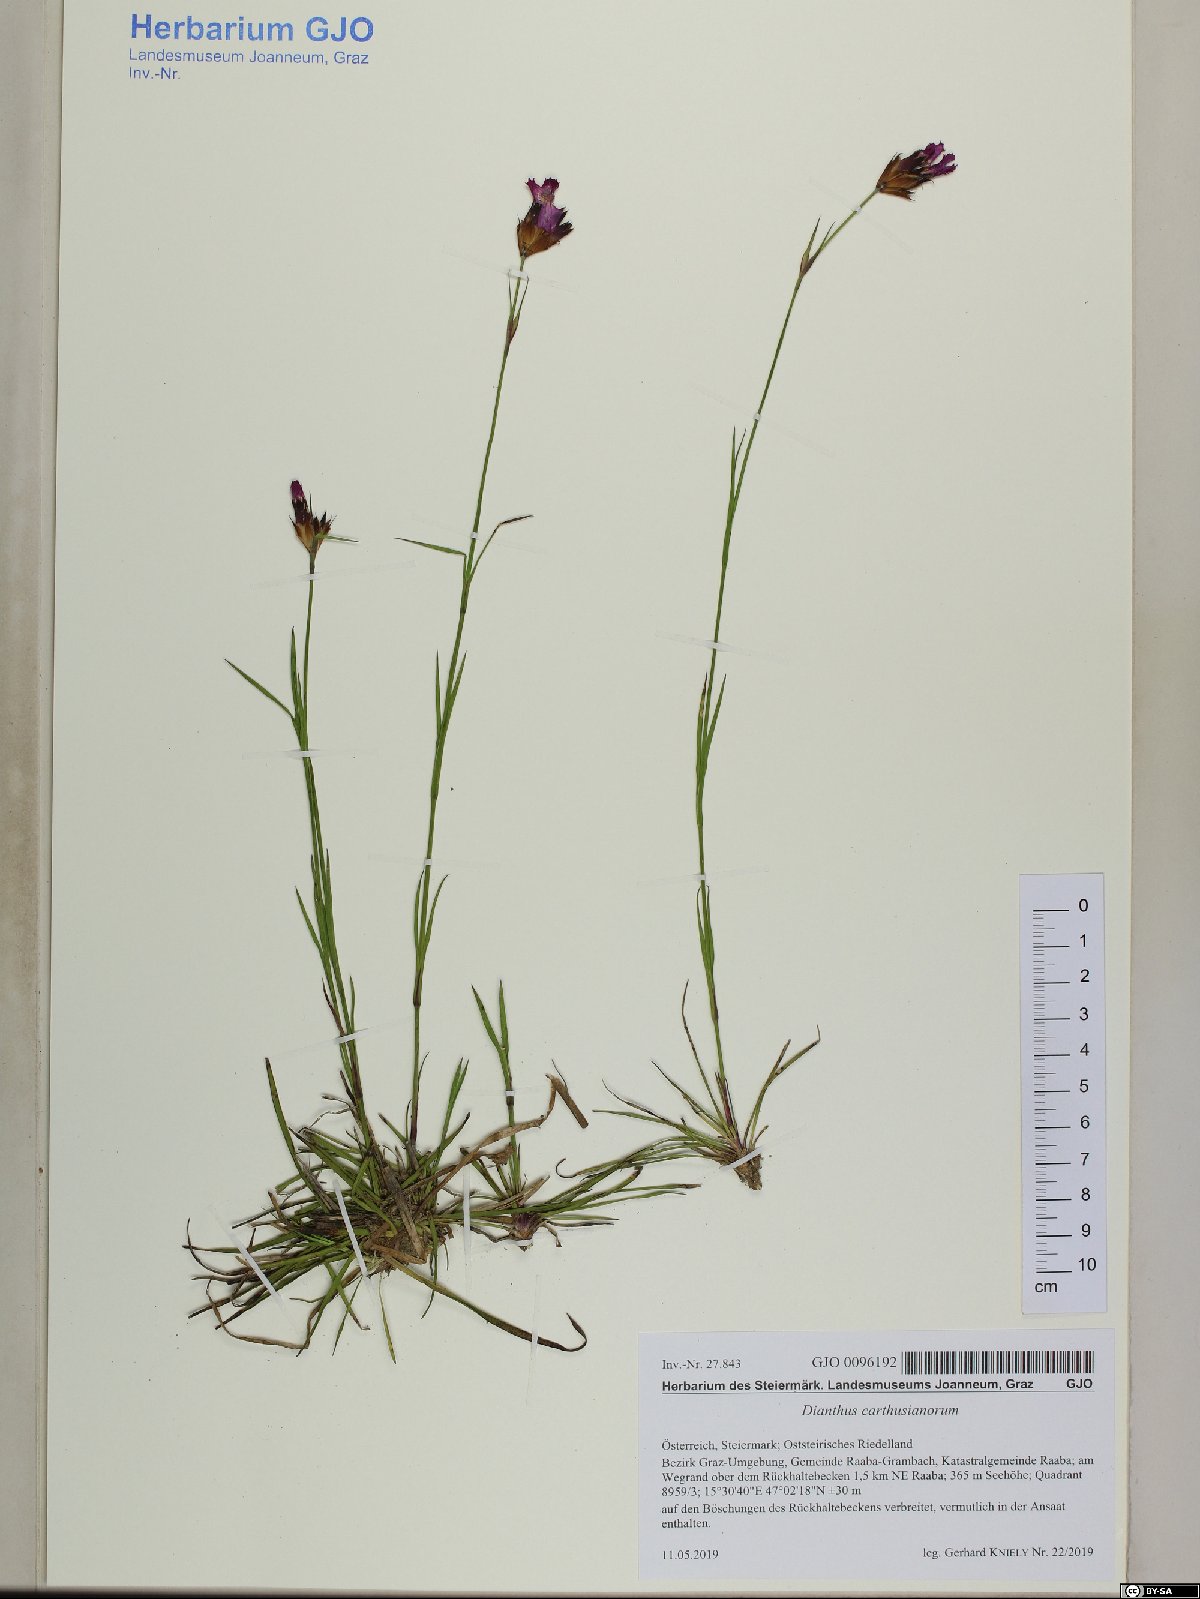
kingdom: Plantae
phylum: Tracheophyta
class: Magnoliopsida
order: Caryophyllales
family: Caryophyllaceae
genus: Dianthus
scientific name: Dianthus carthusianorum
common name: Carthusian pink
